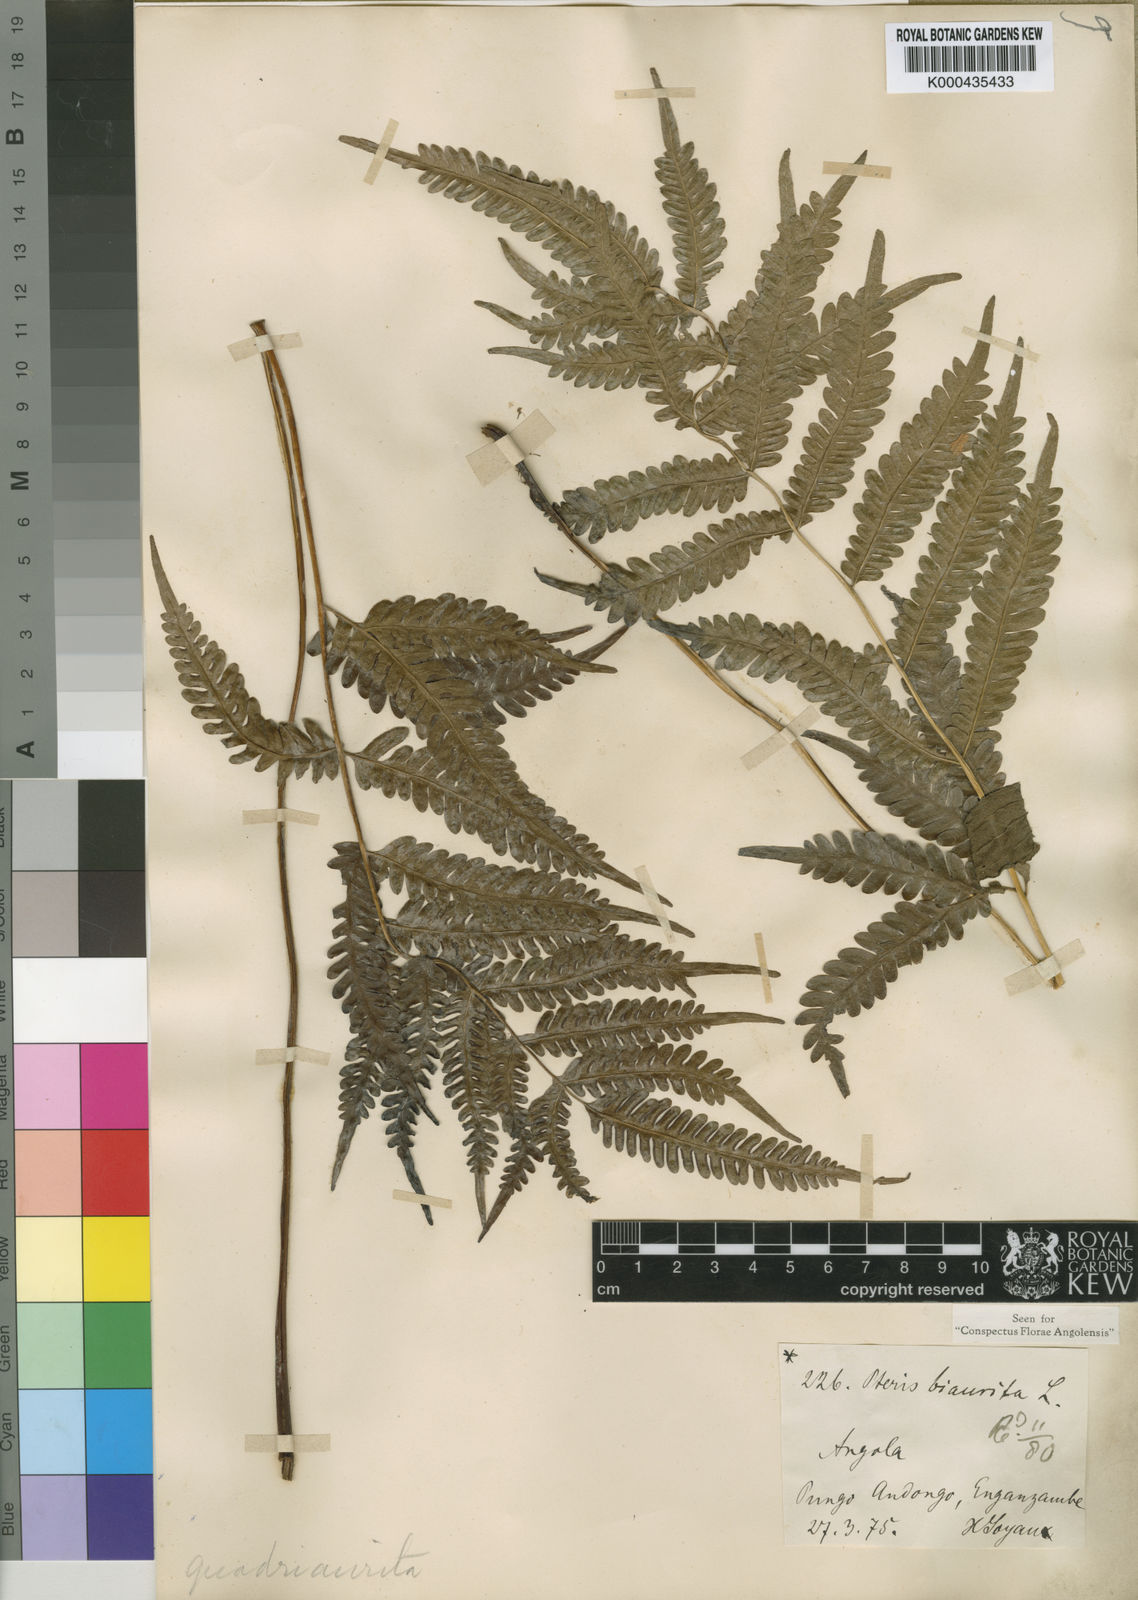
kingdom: Plantae
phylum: Tracheophyta
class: Polypodiopsida
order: Polypodiales
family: Pteridaceae
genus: Pteris
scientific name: Pteris friesii
